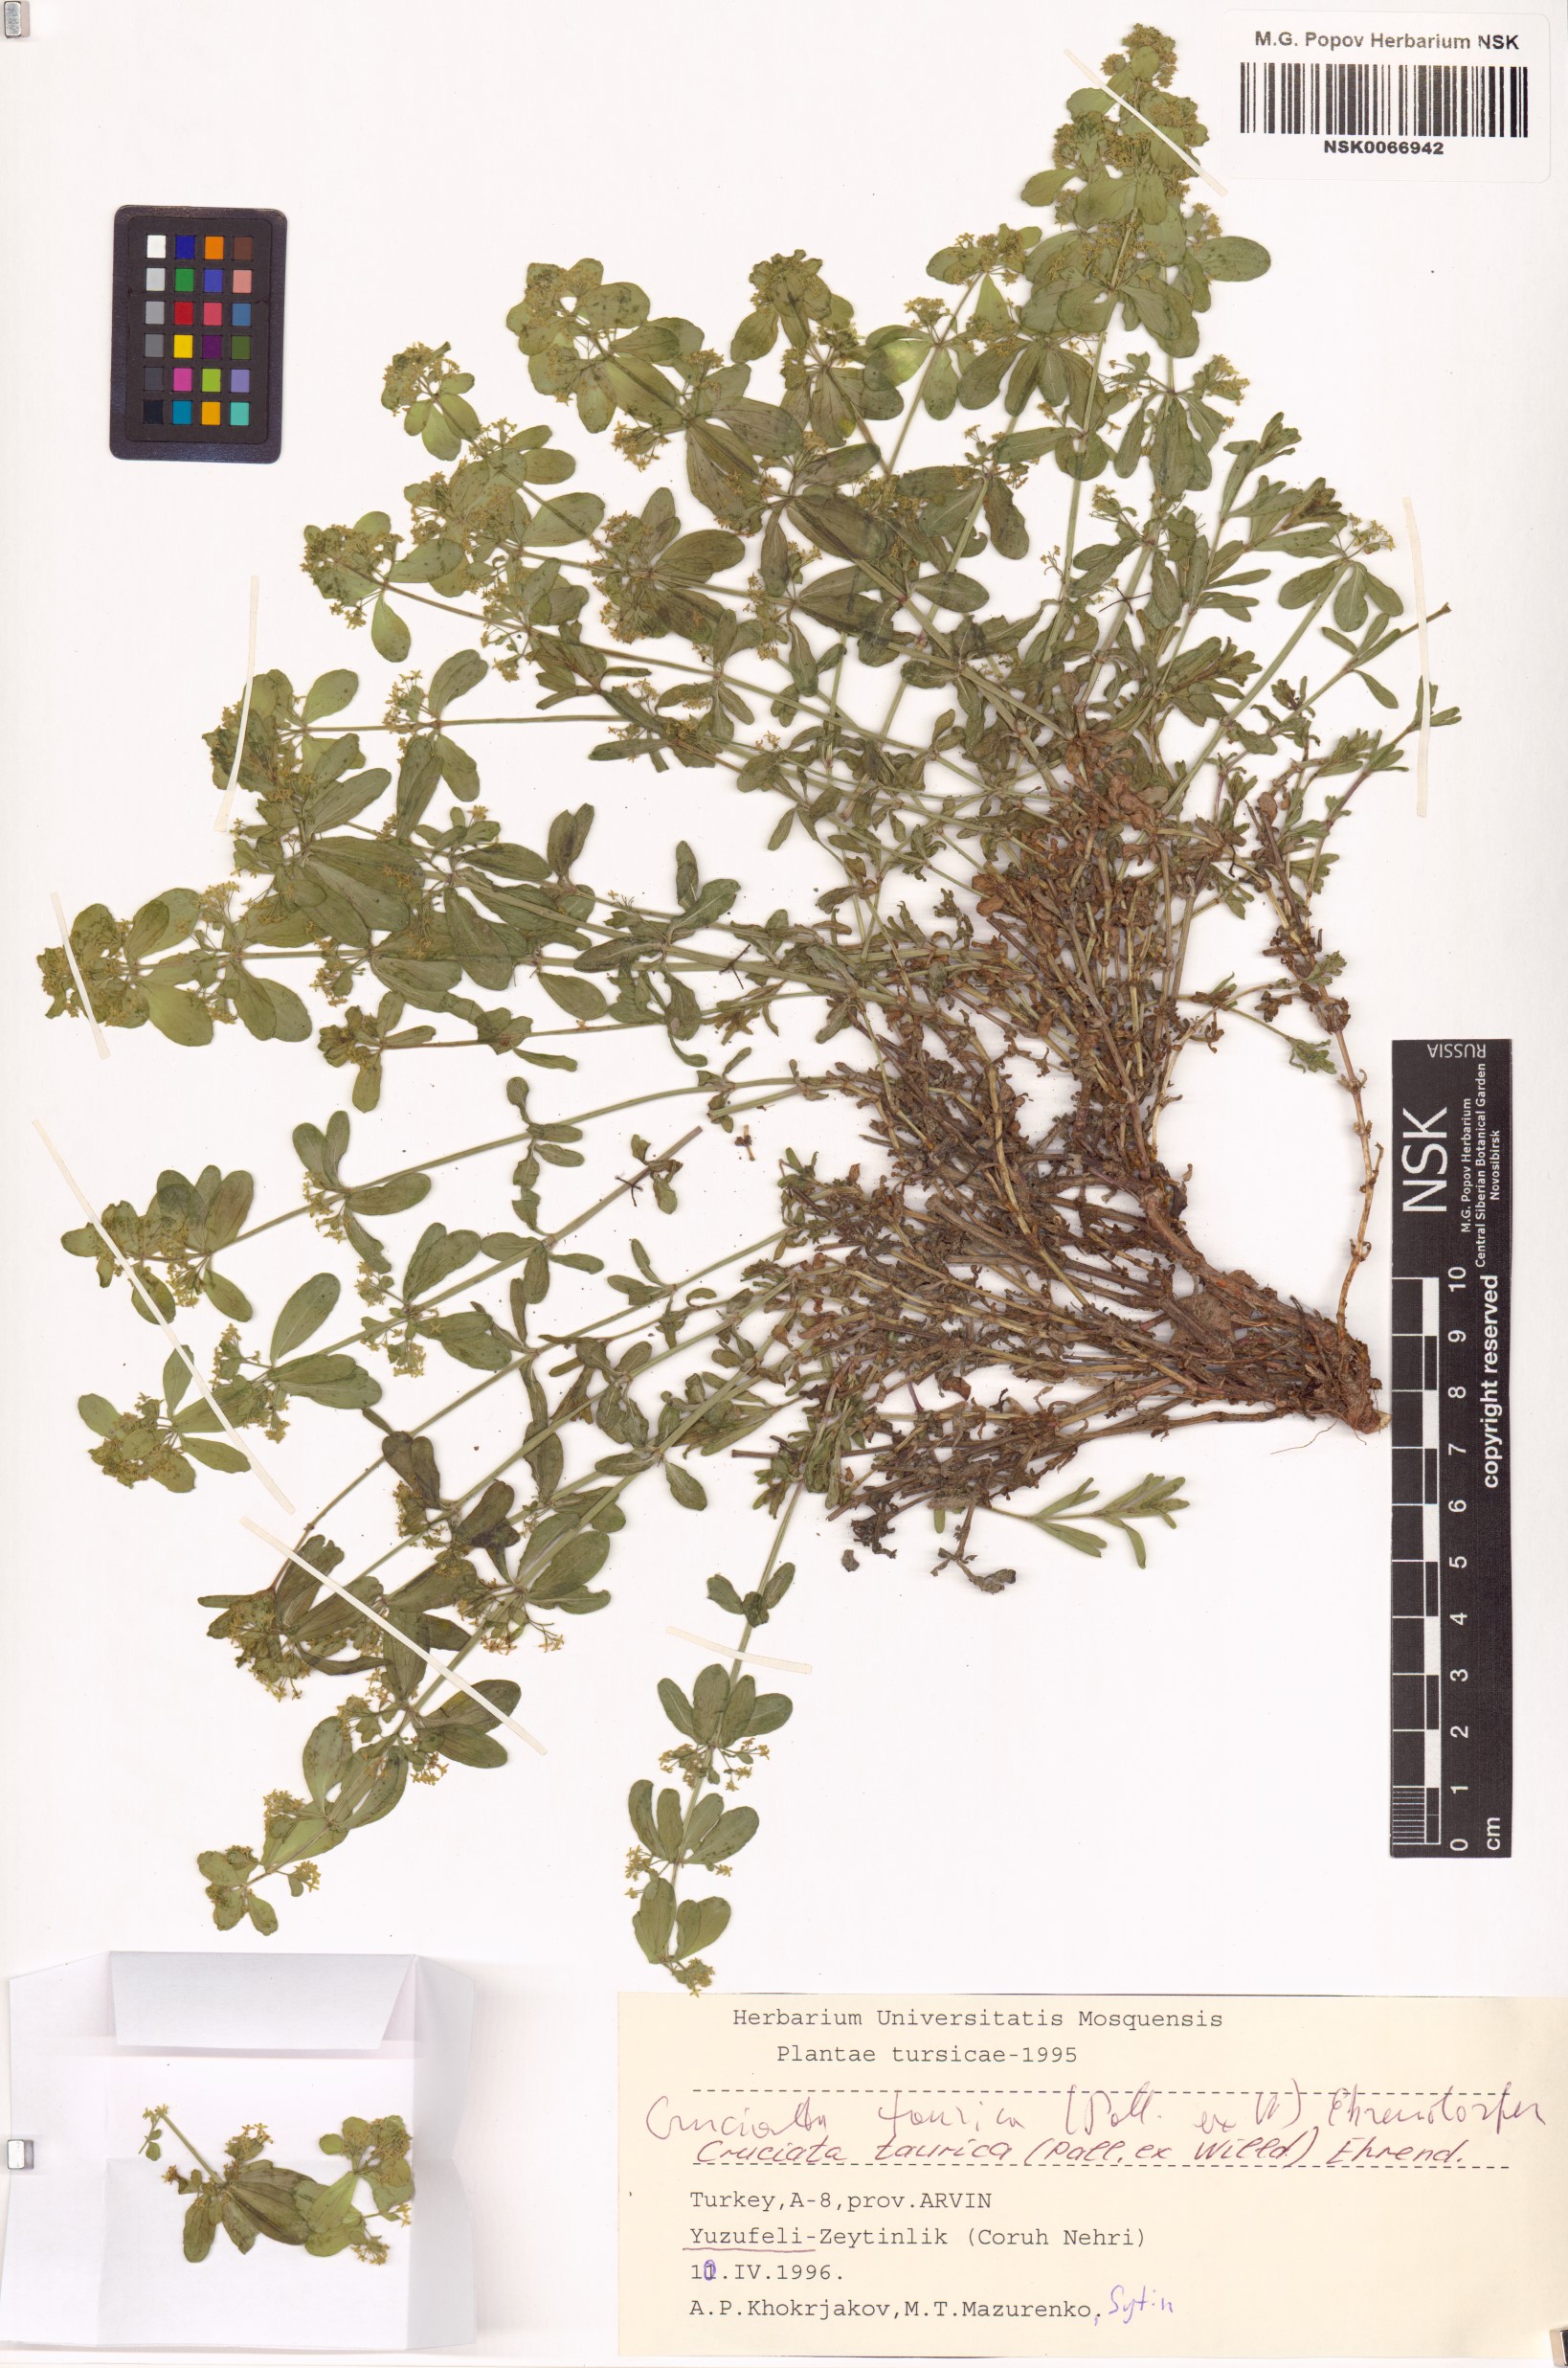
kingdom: Plantae
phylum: Tracheophyta
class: Magnoliopsida
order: Gentianales
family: Rubiaceae
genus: Cruciata
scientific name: Cruciata taurica
